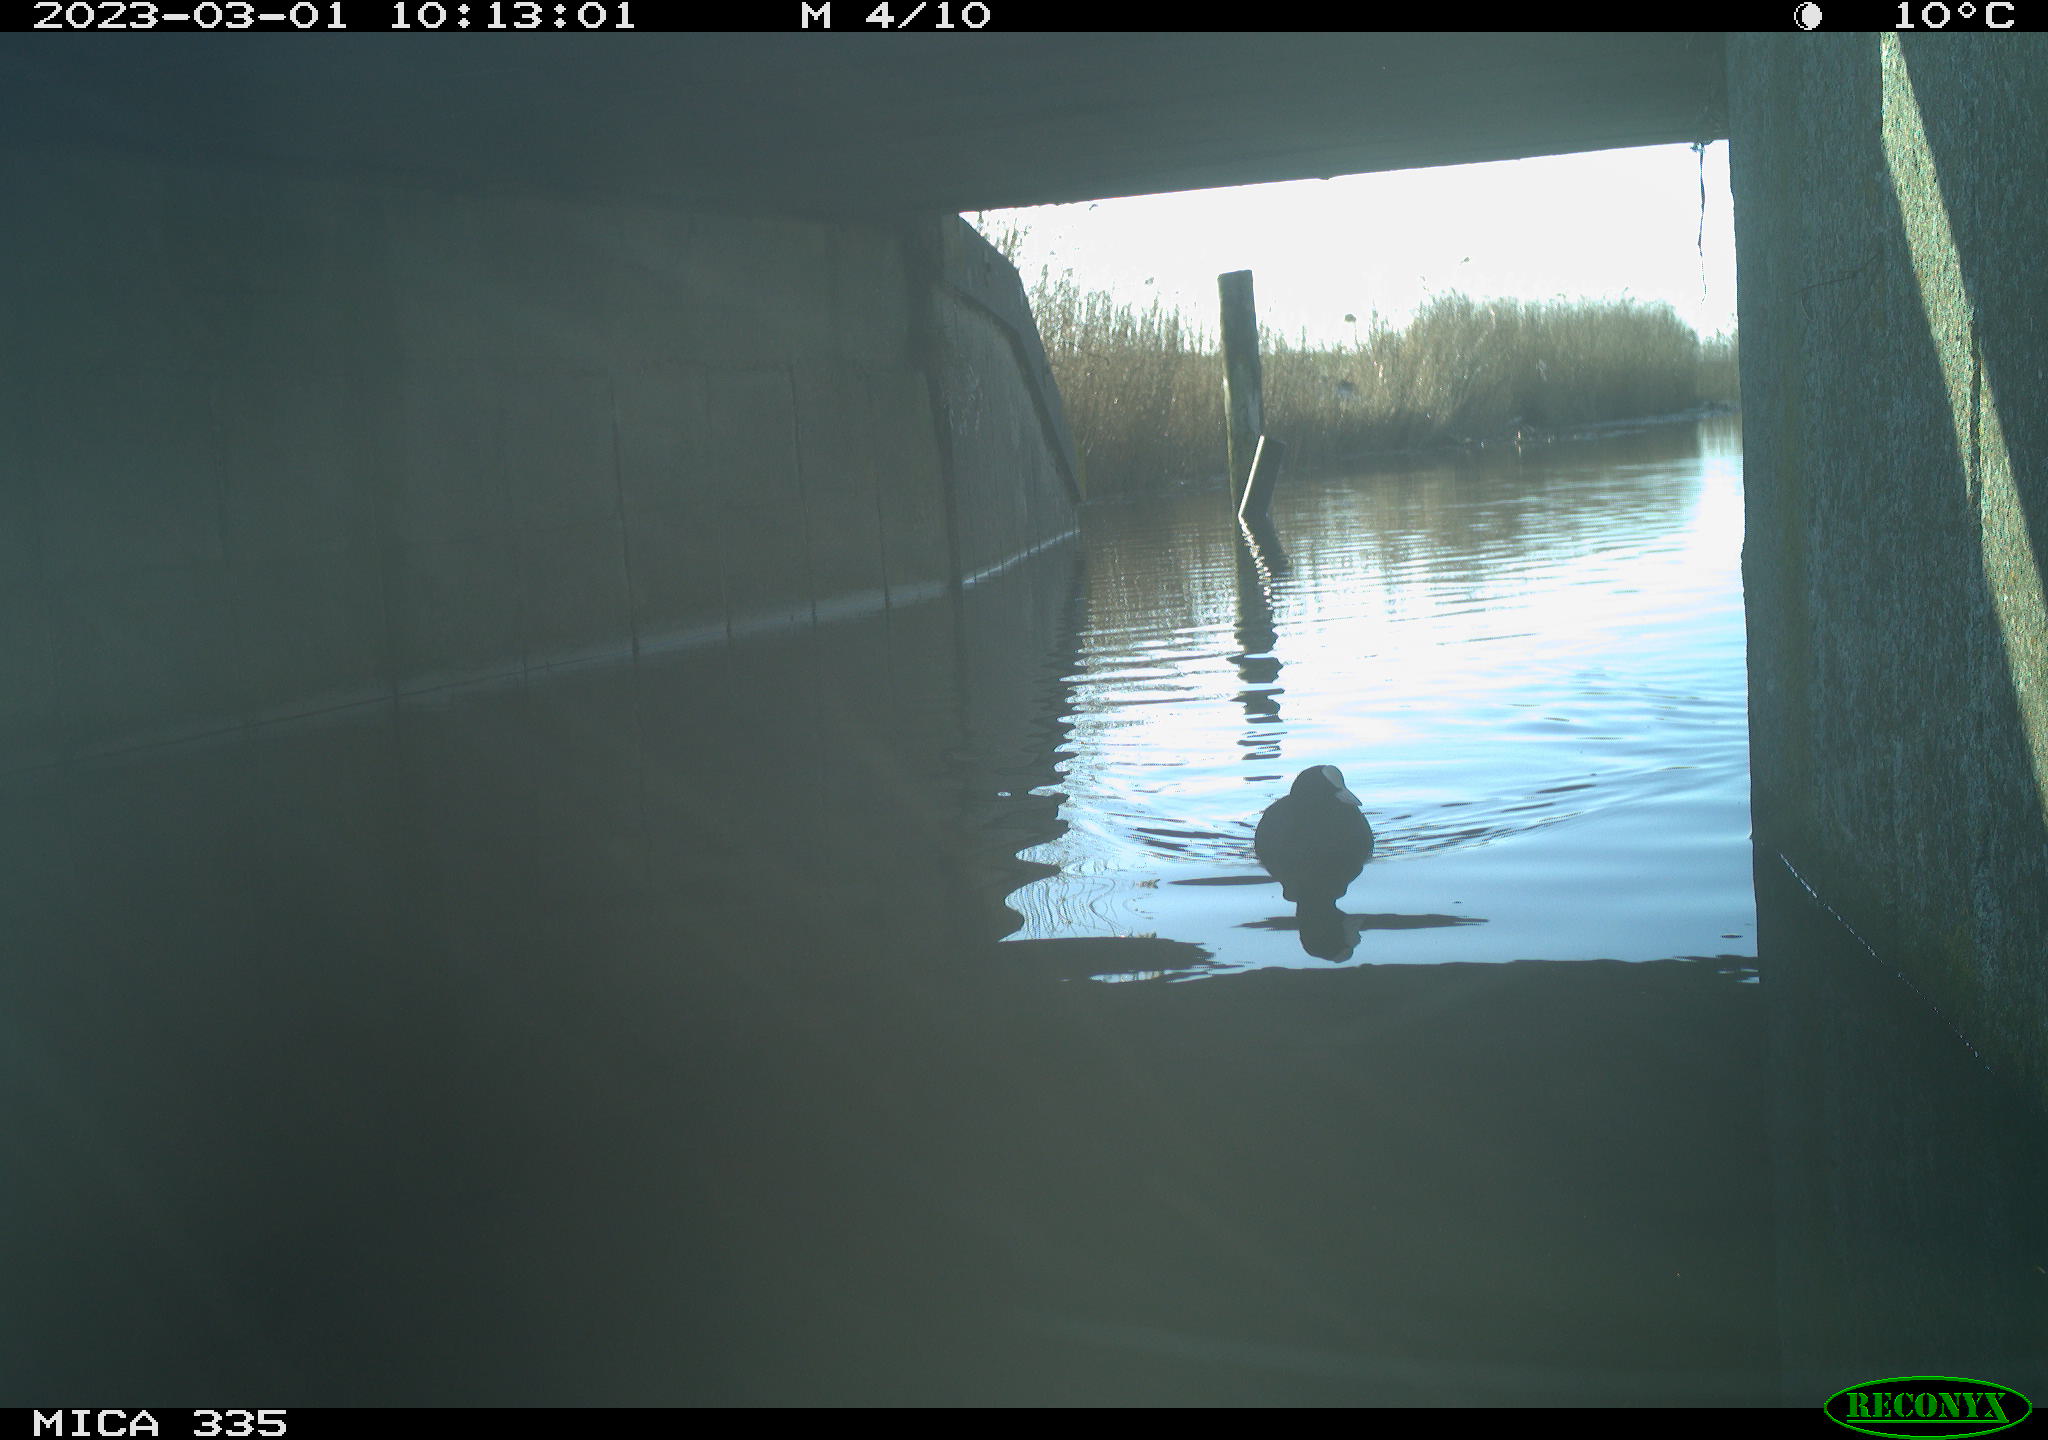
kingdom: Animalia
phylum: Chordata
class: Aves
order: Gruiformes
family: Rallidae
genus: Fulica
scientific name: Fulica atra
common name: Eurasian coot
